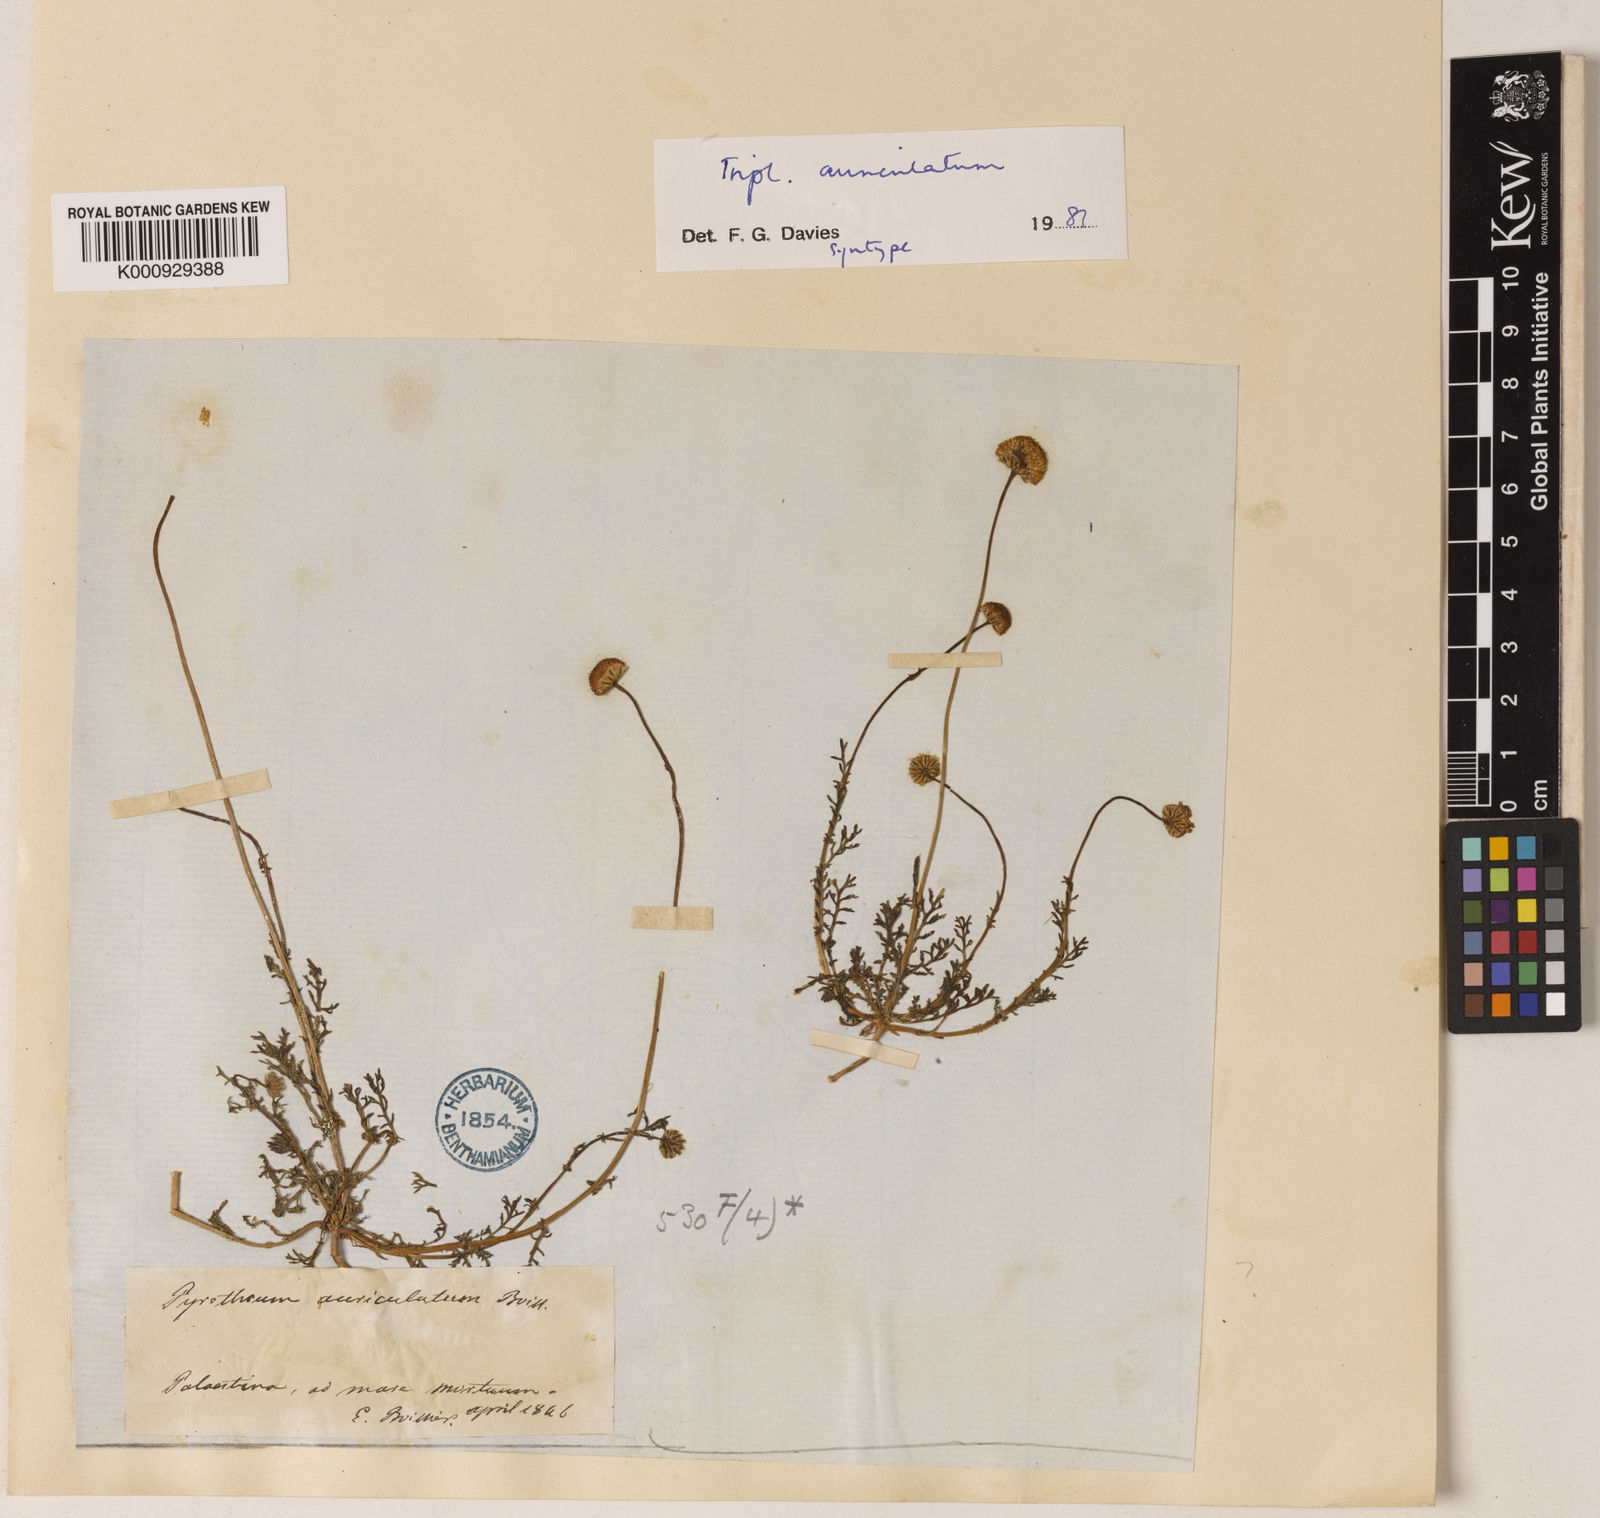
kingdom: Plantae
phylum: Tracheophyta
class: Magnoliopsida
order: Asterales
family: Asteraceae
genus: Tripleurospermum
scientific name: Tripleurospermum auriculatum
